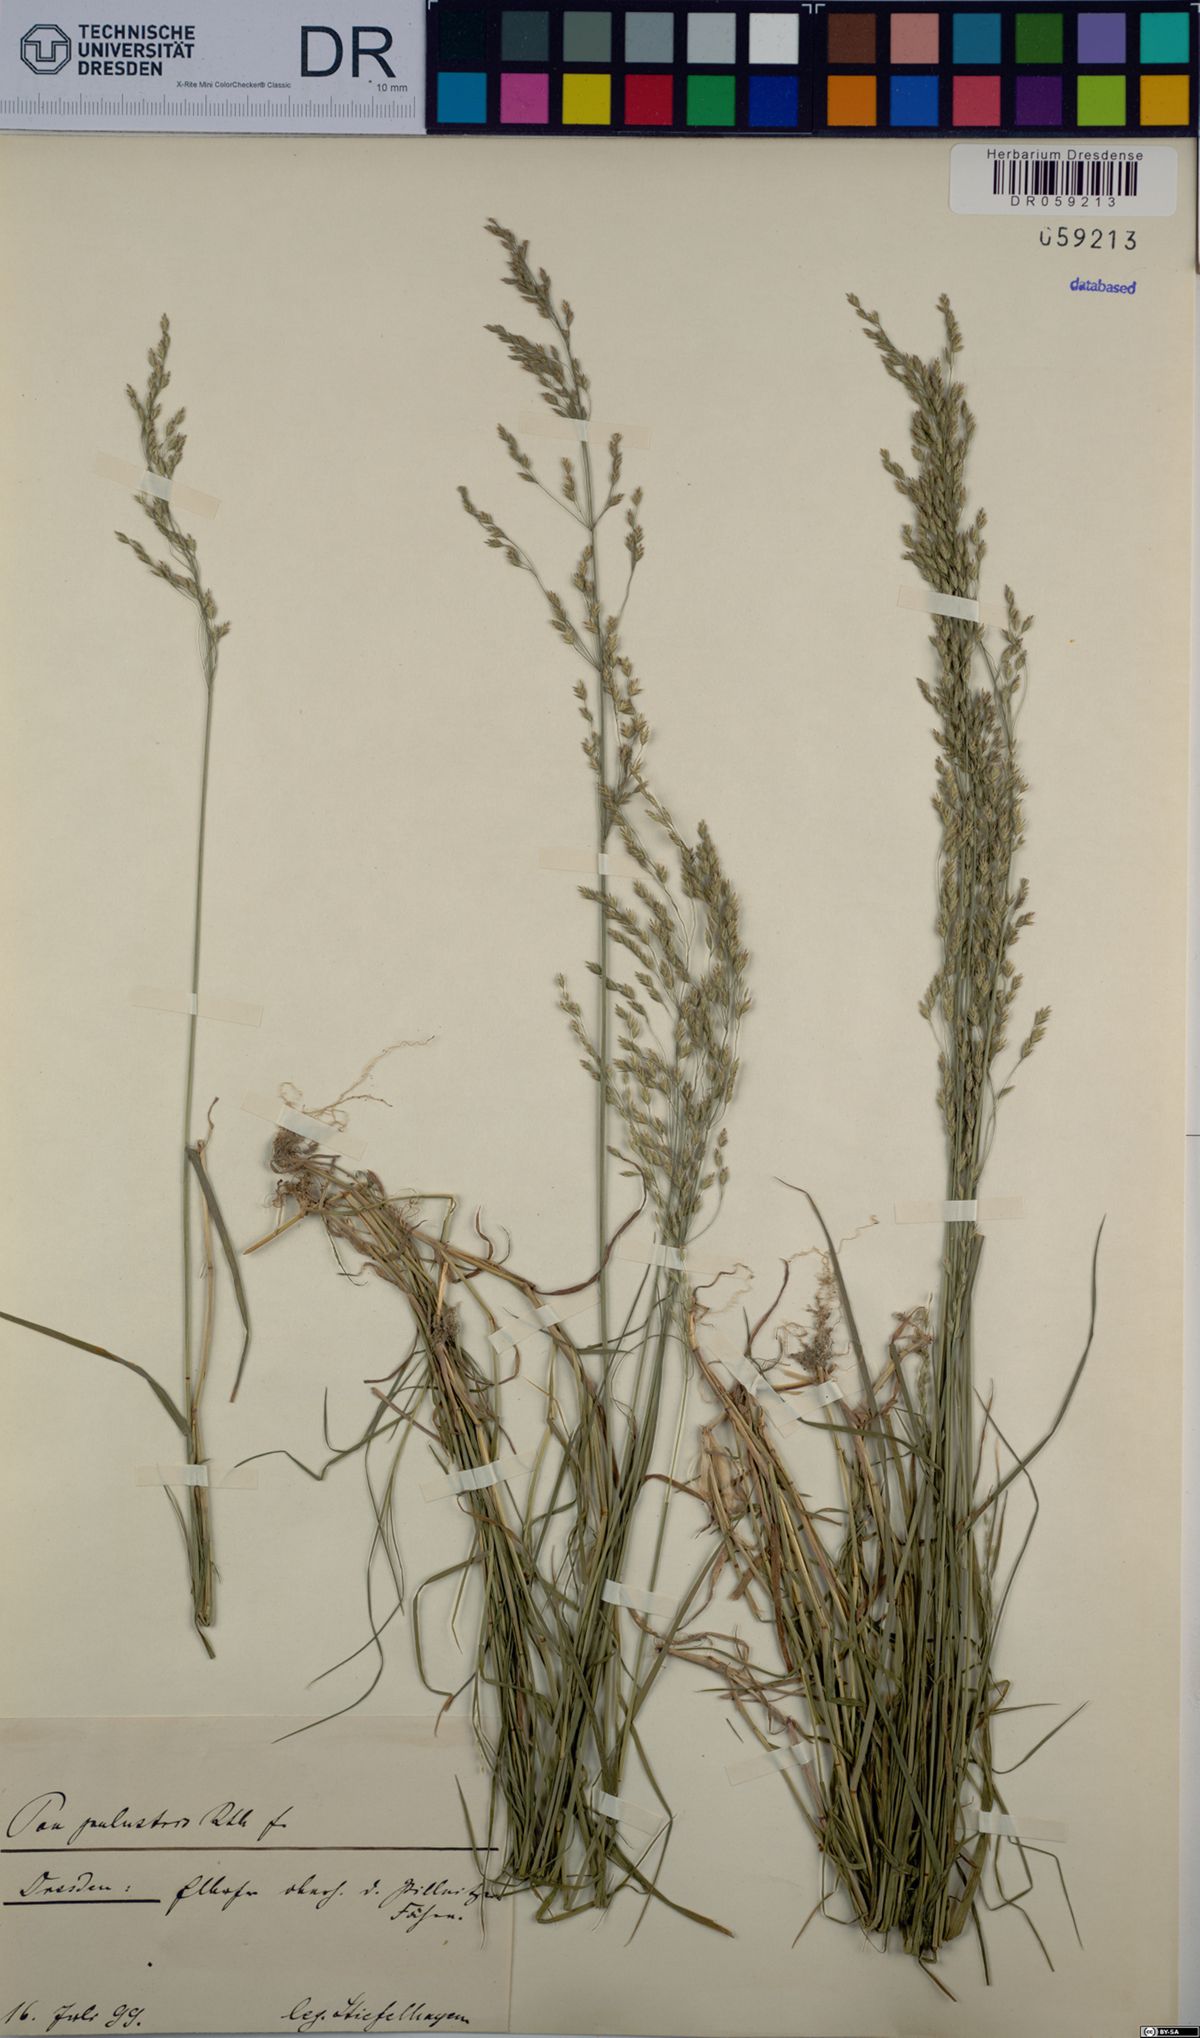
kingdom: Plantae
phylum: Tracheophyta
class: Liliopsida
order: Poales
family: Poaceae
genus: Poa
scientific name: Poa palustris
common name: Swamp meadow-grass
